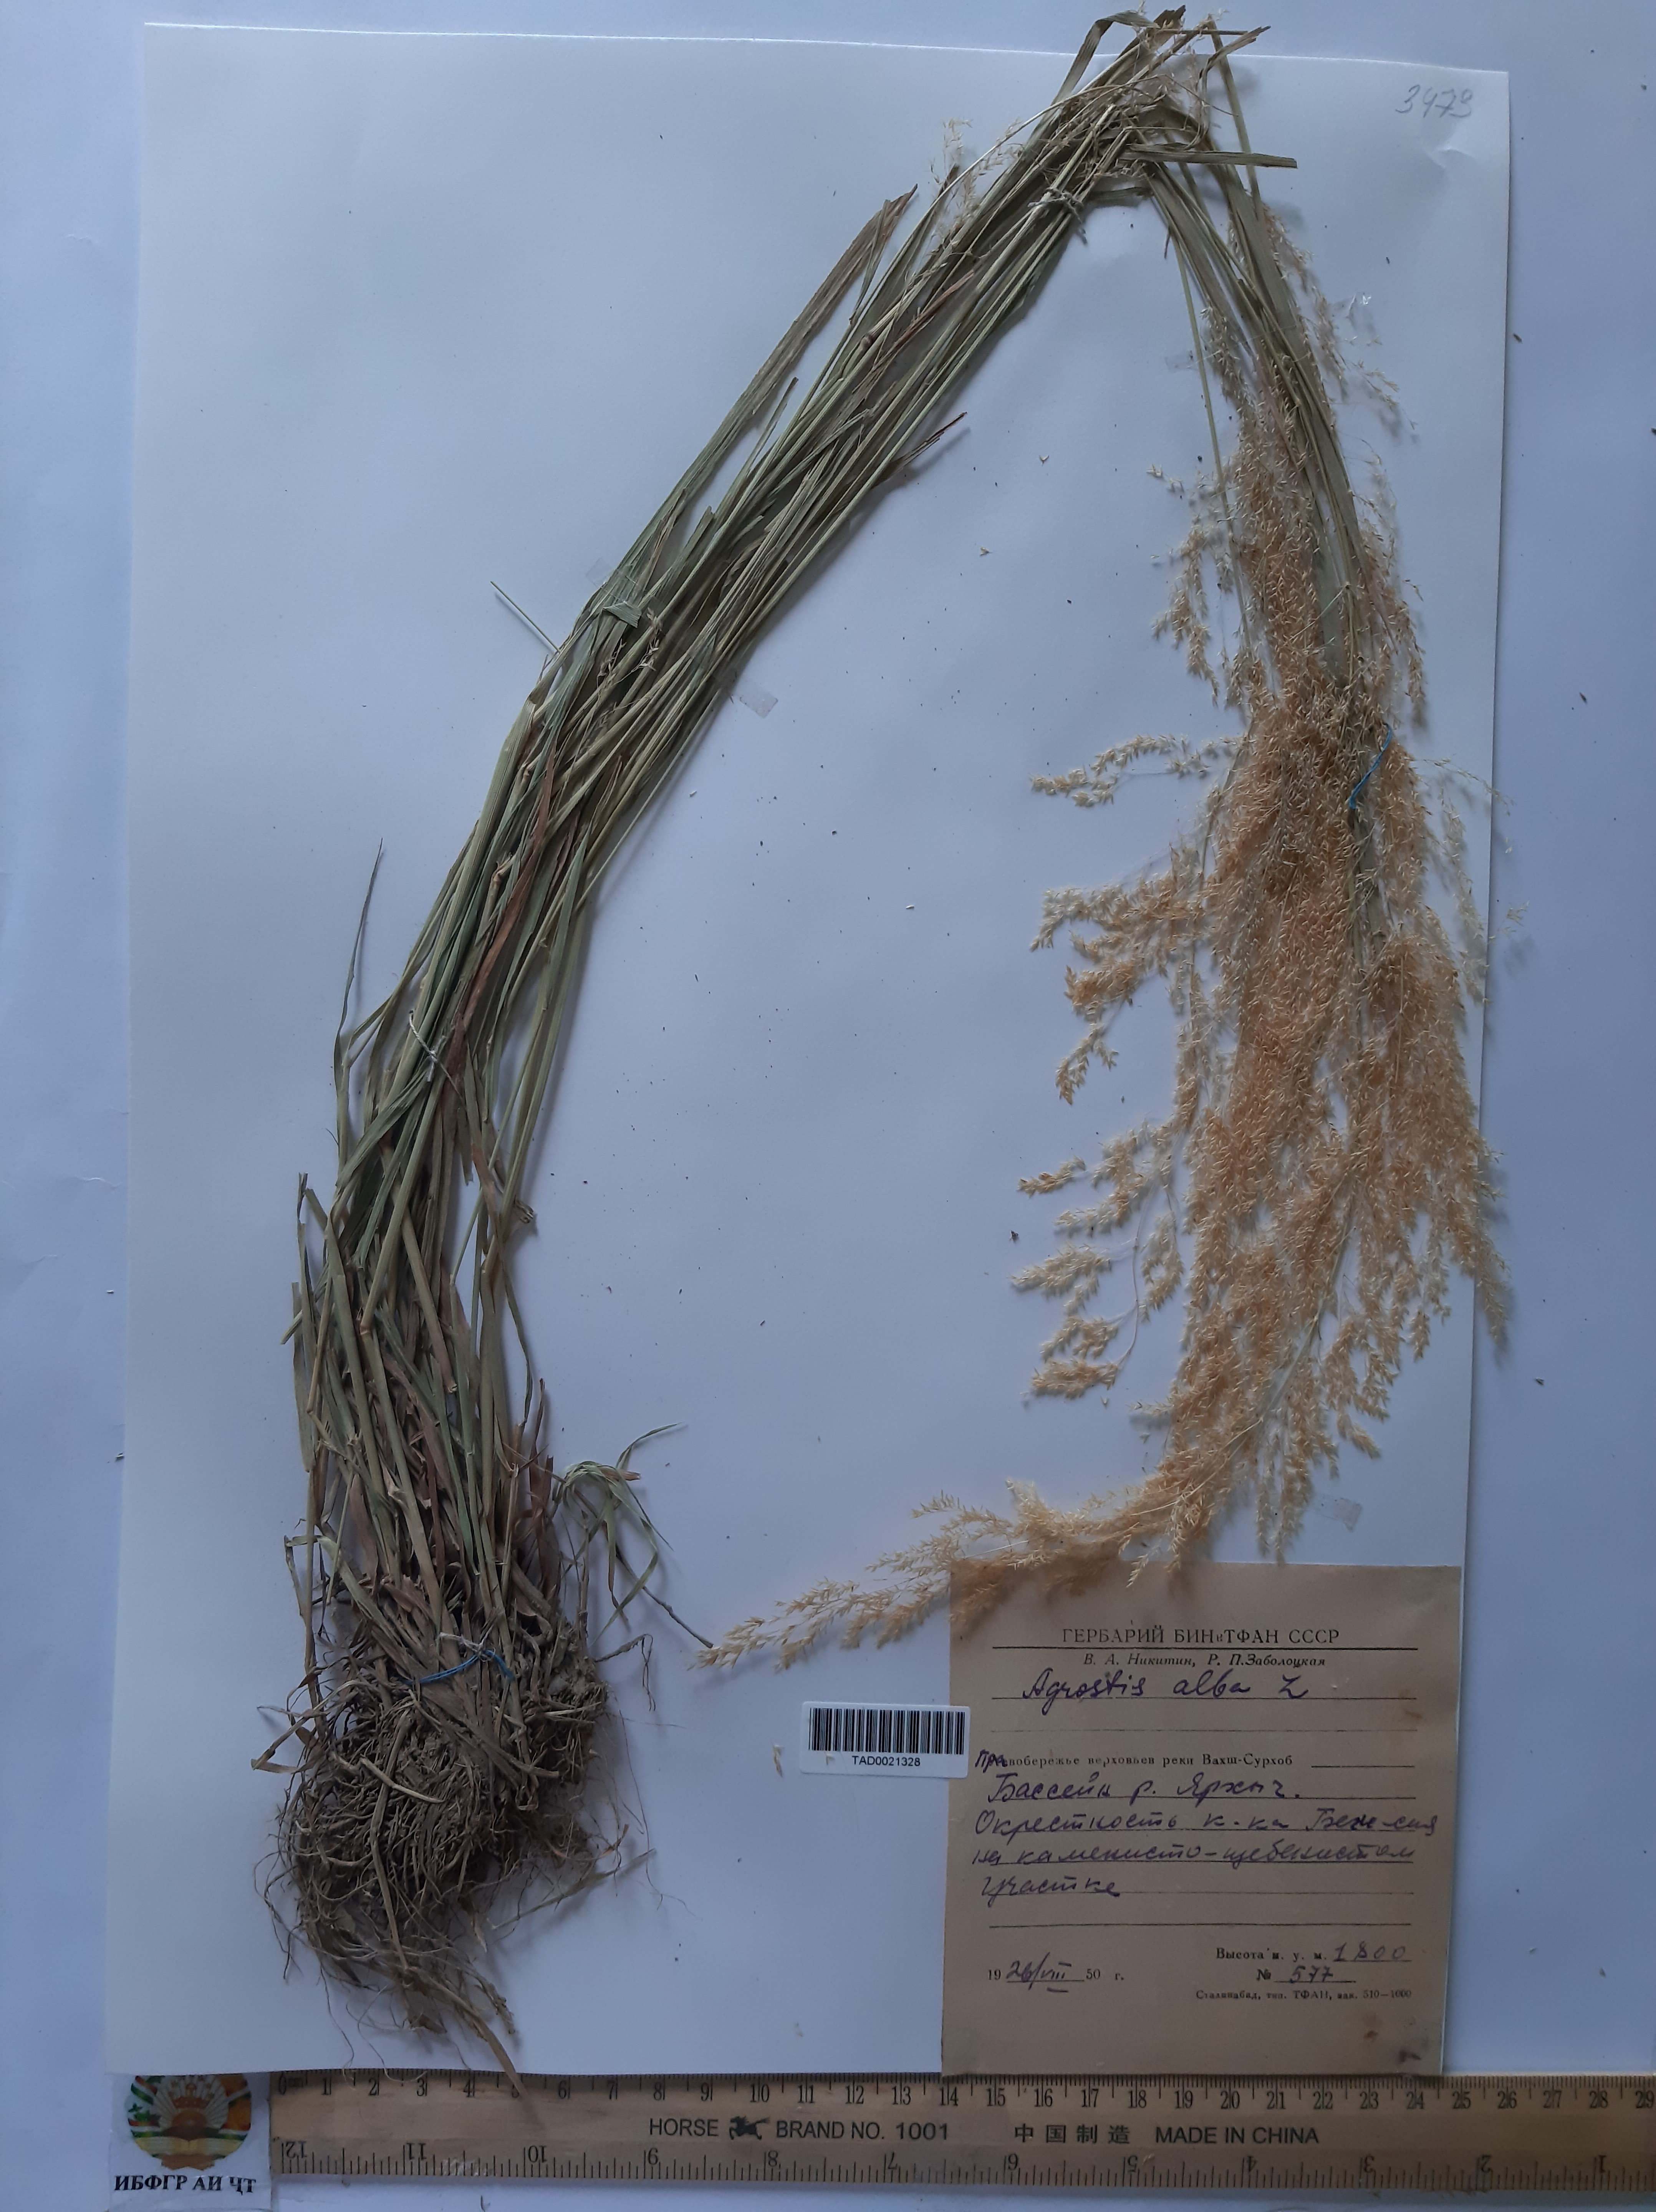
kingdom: Plantae
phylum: Tracheophyta
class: Liliopsida
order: Poales
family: Poaceae
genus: Poa
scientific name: Poa nemoralis
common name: Wood bluegrass
